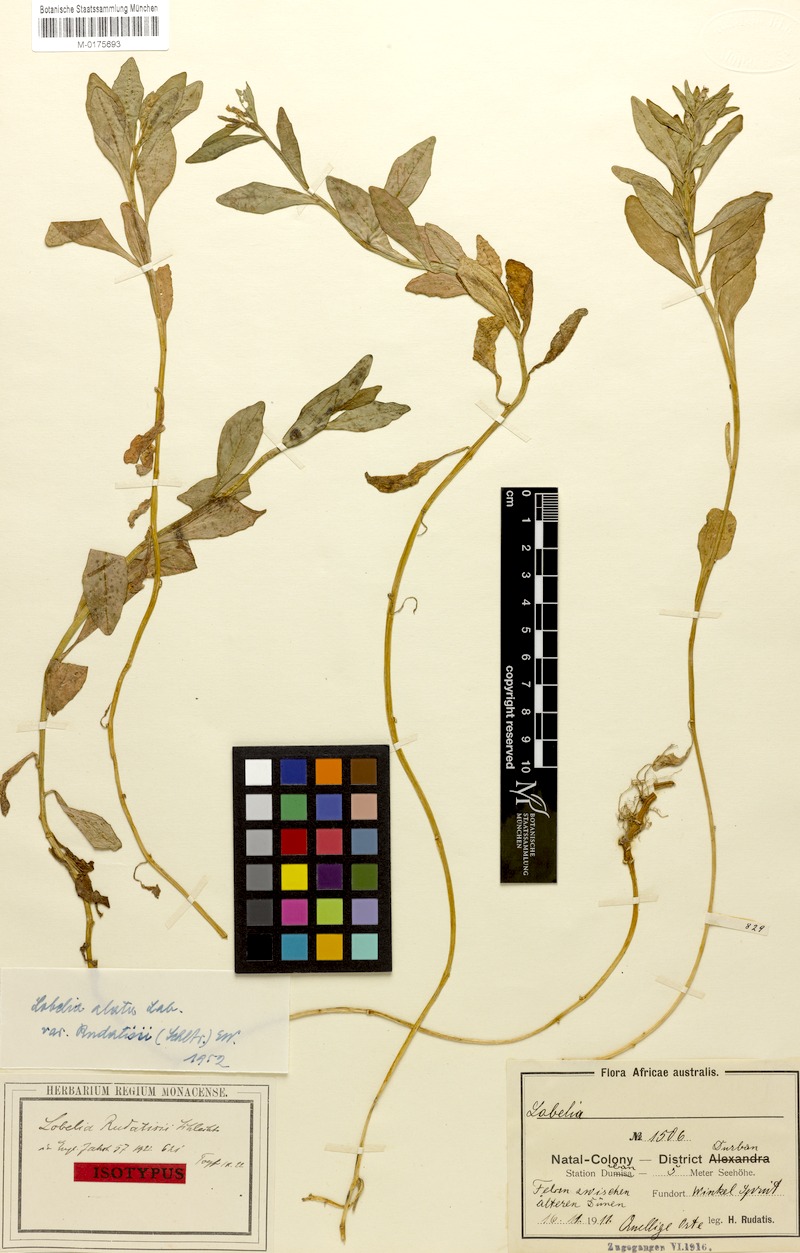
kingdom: Plantae
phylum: Tracheophyta
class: Magnoliopsida
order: Asterales
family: Campanulaceae
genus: Lobelia
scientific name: Lobelia anceps
